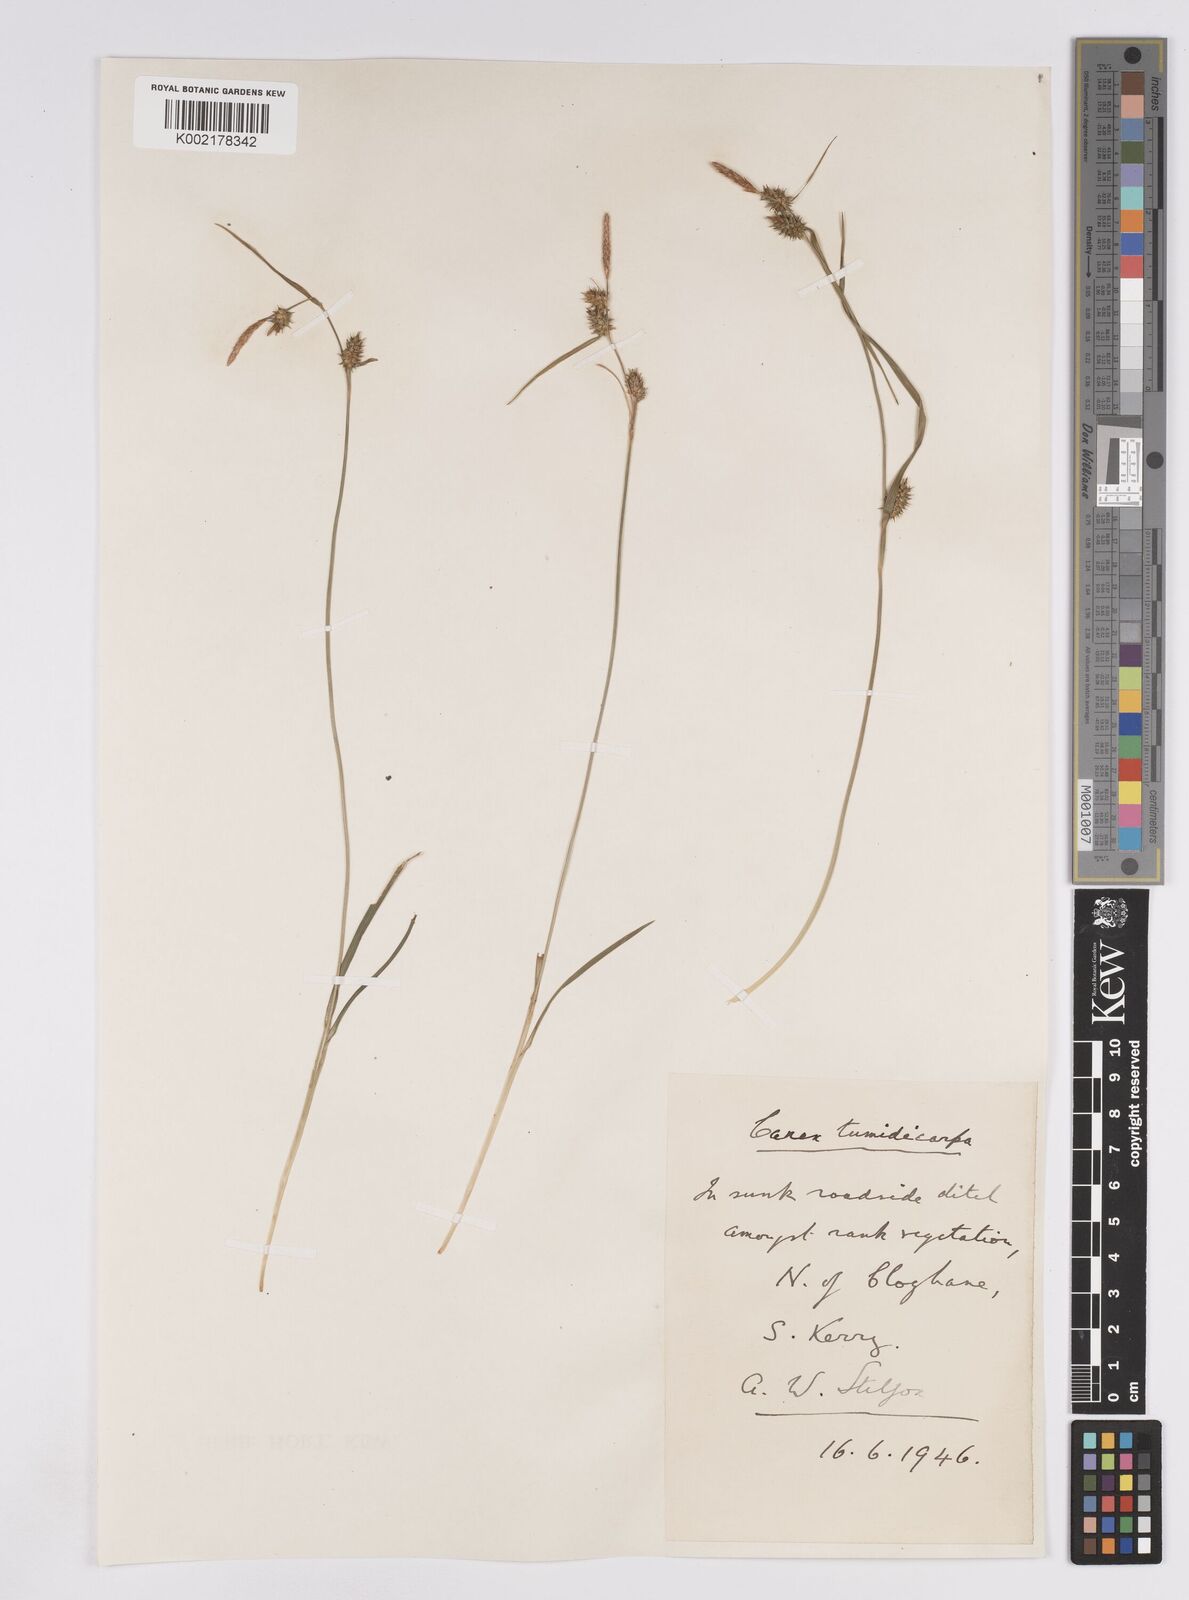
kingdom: Plantae
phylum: Tracheophyta
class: Liliopsida
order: Poales
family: Cyperaceae
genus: Carex
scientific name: Carex demissa
